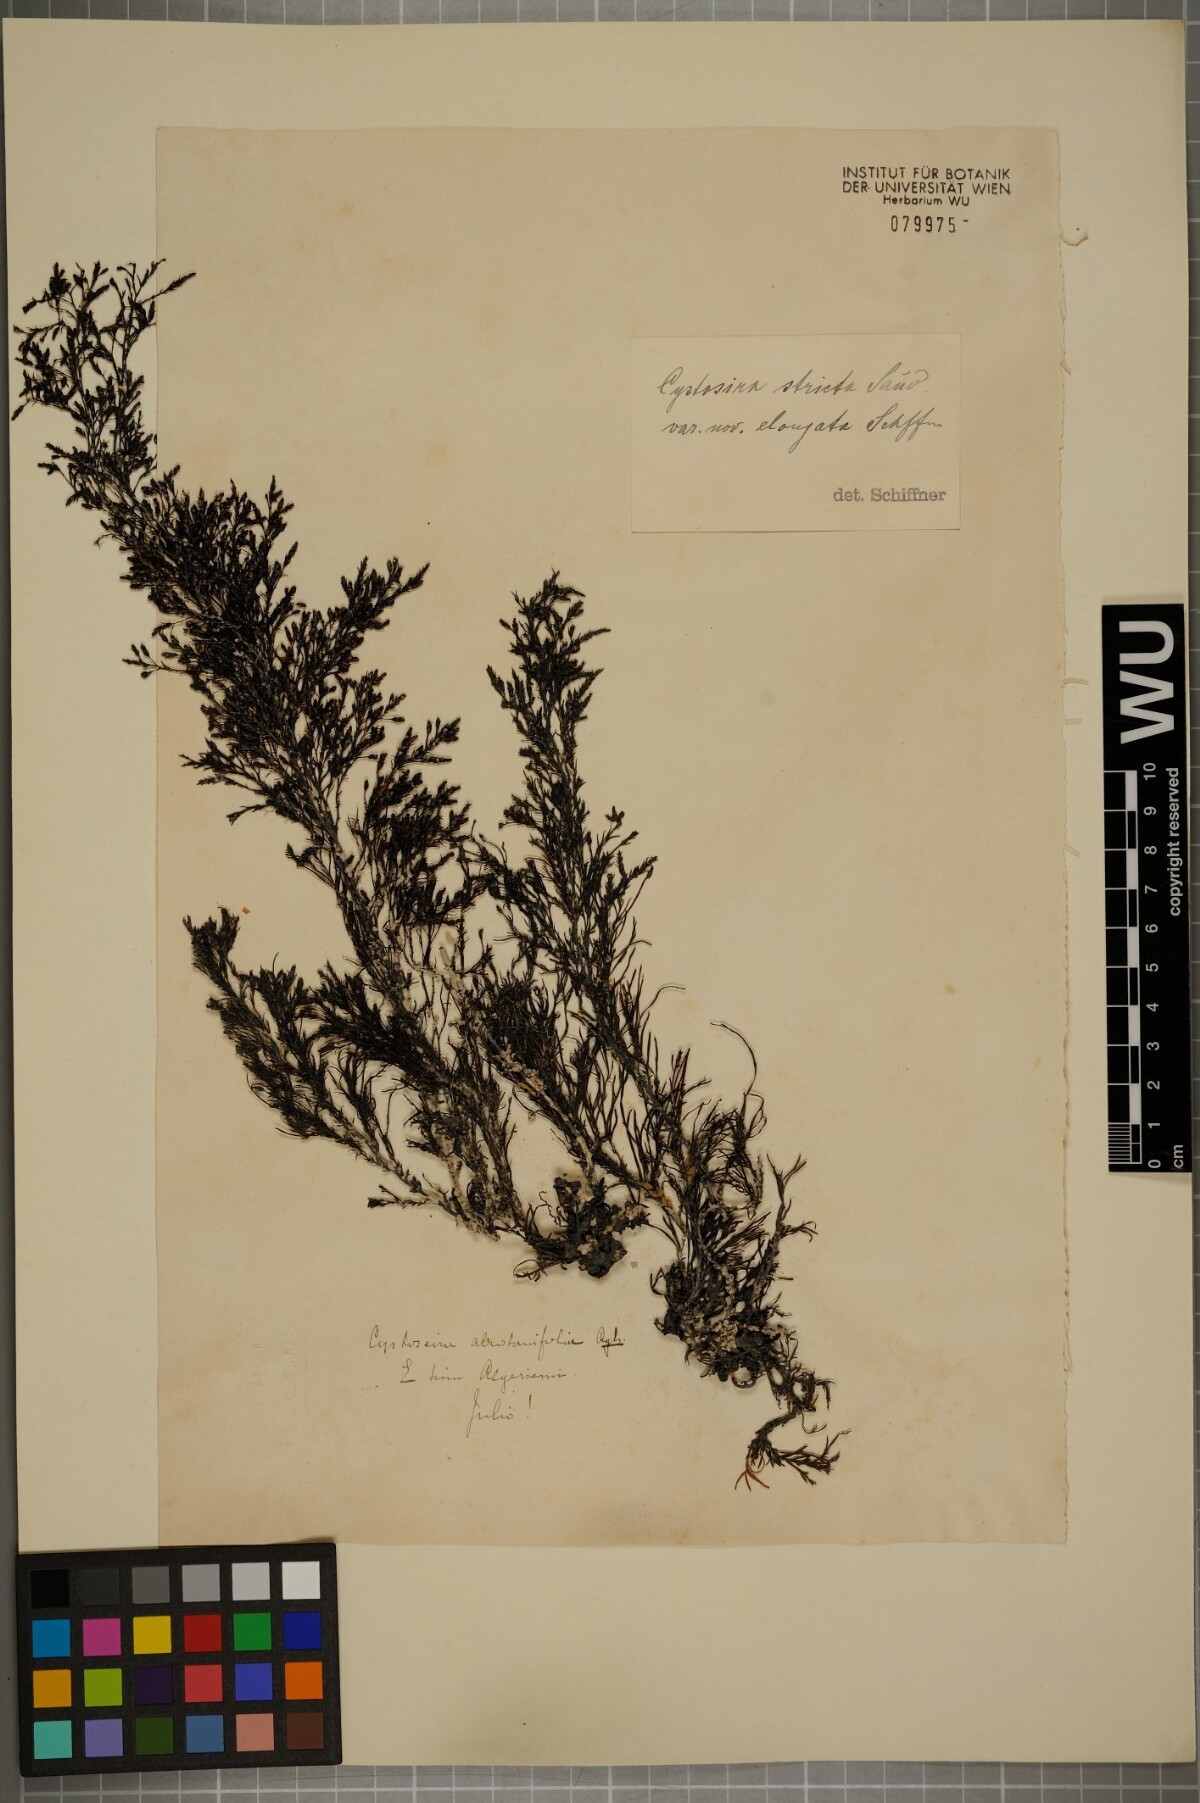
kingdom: Chromista
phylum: Ochrophyta
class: Phaeophyceae
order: Fucales
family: Sargassaceae
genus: Cystoseira
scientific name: Cystoseira Ericaria amentacea
